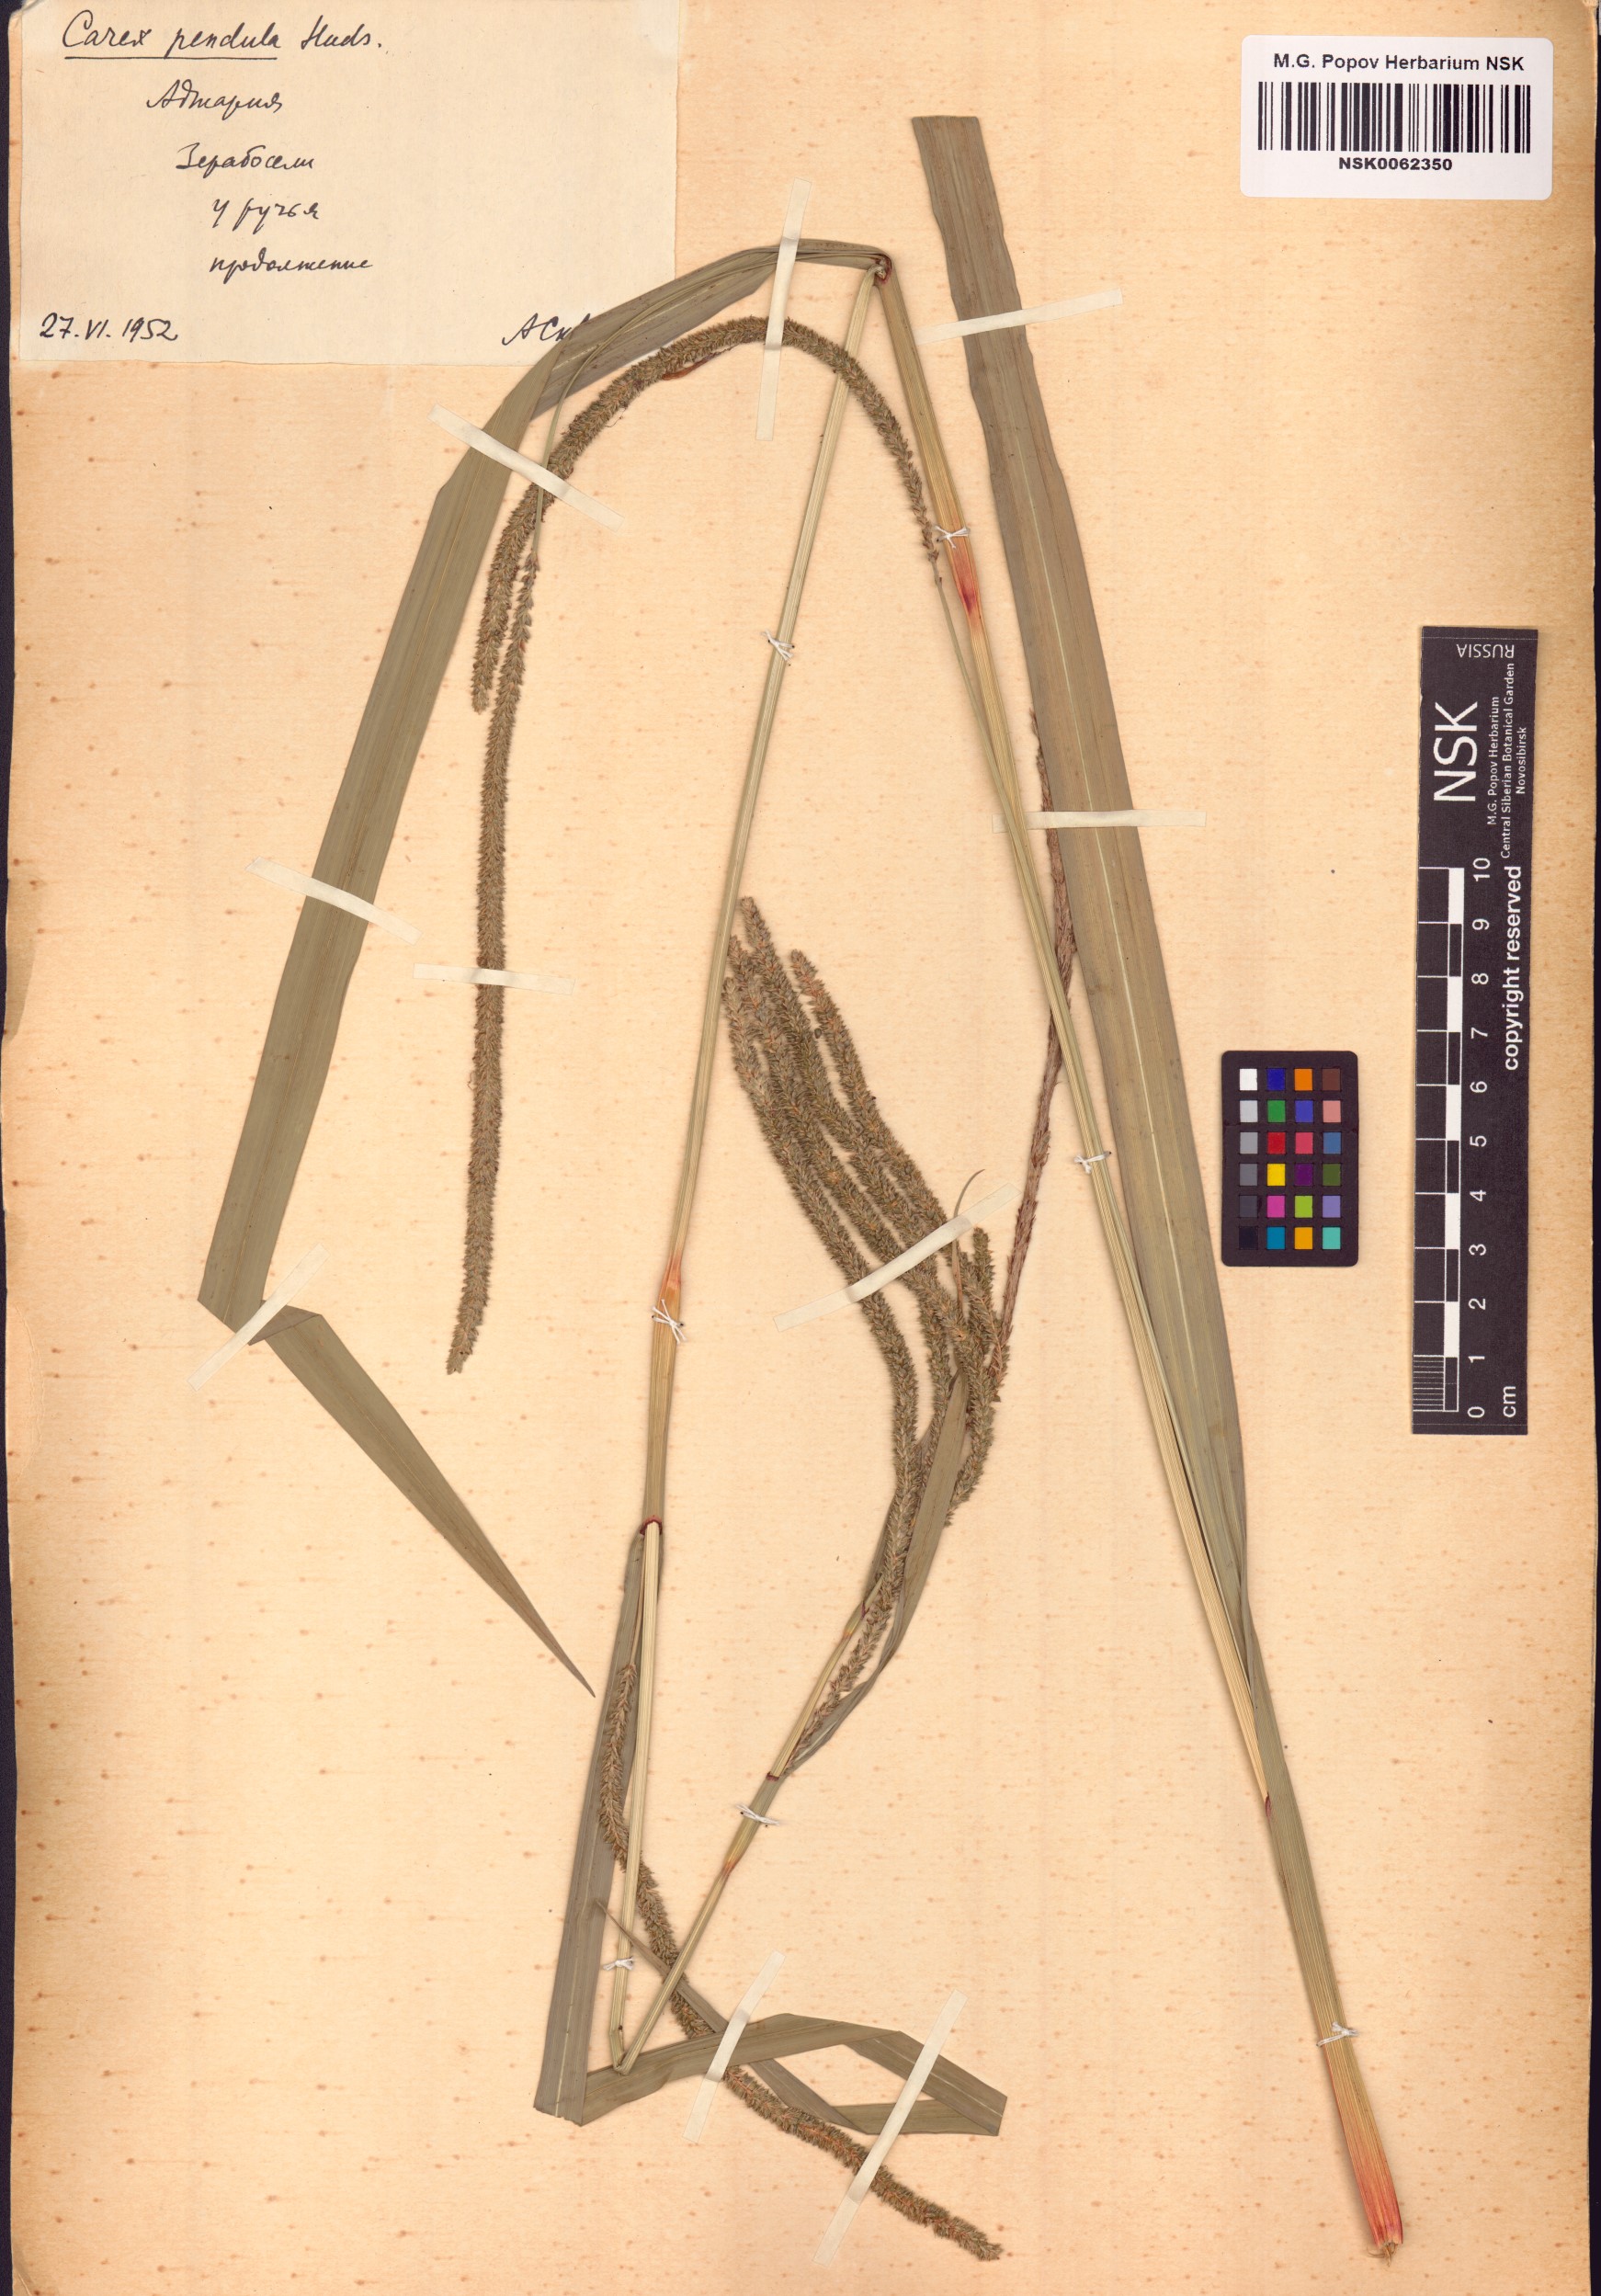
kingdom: Plantae
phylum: Tracheophyta
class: Liliopsida
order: Poales
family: Cyperaceae
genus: Carex
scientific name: Carex pendula
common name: Pendulous sedge
